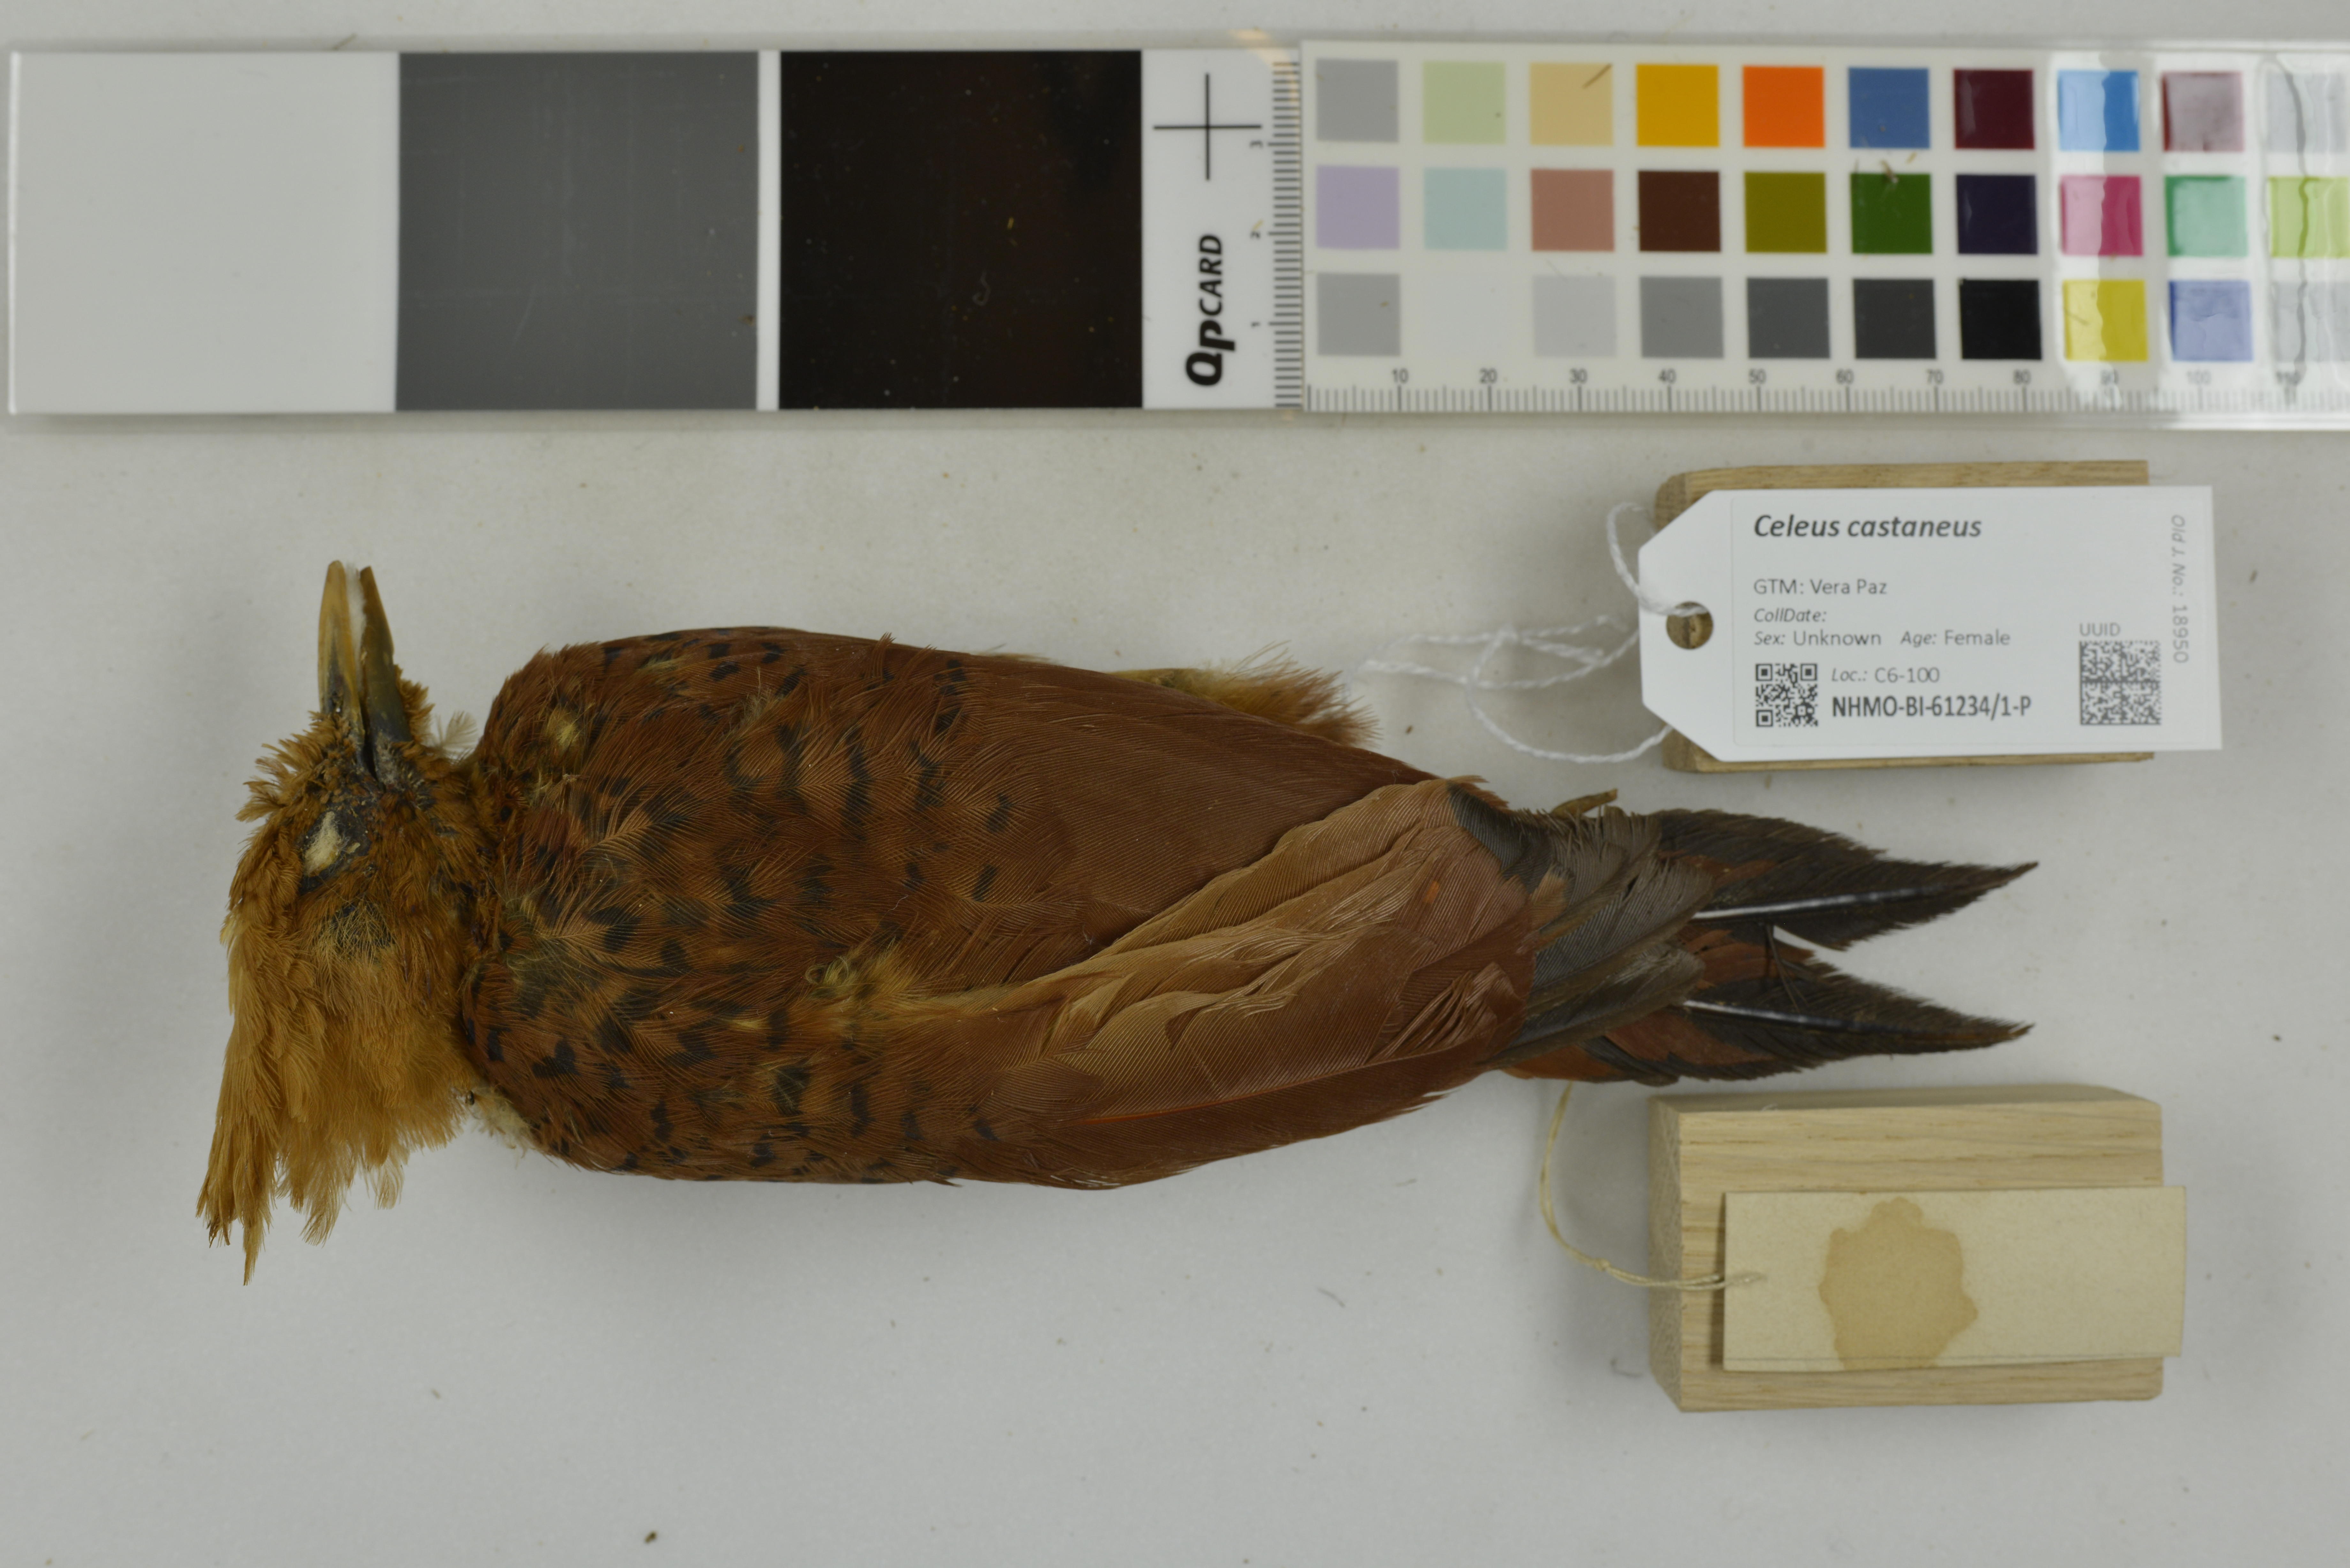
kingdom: Animalia
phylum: Chordata
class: Aves
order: Piciformes
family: Picidae
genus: Celeus
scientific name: Celeus castaneus
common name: Chestnut-colored woodpecker
